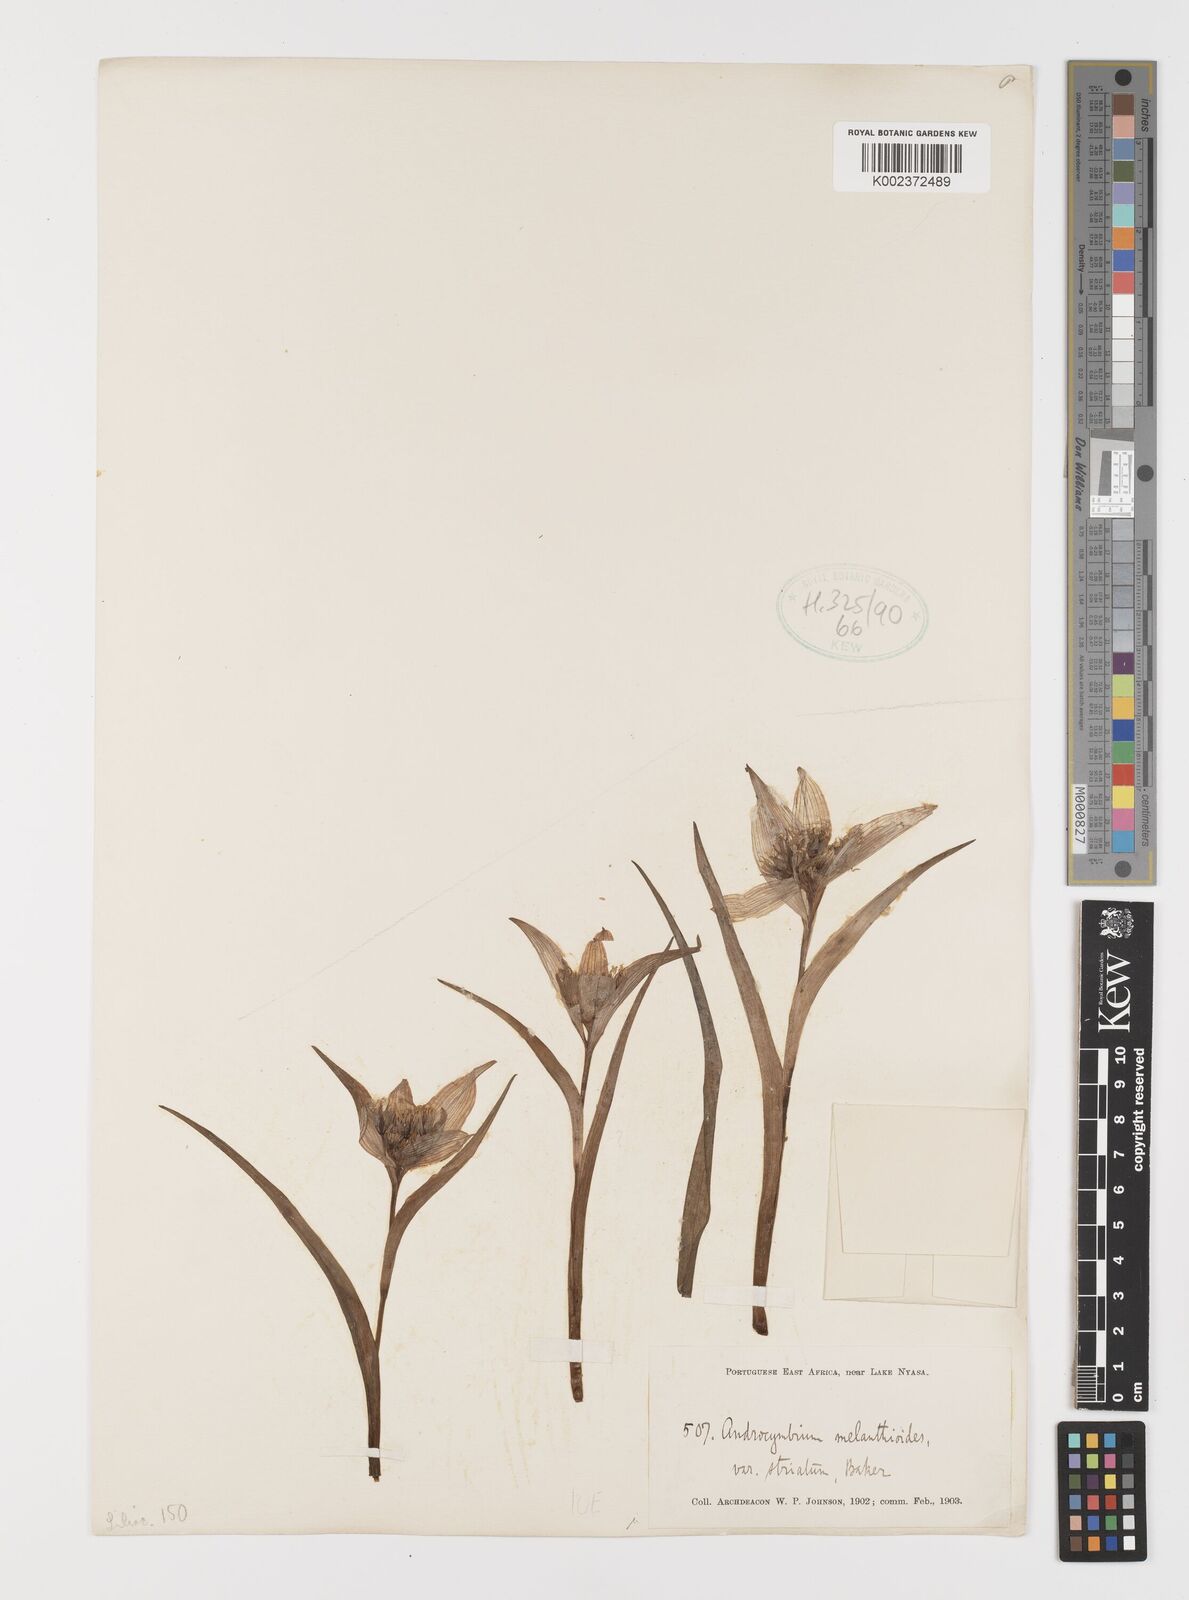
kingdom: Plantae
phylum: Tracheophyta
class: Liliopsida
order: Liliales
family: Colchicaceae
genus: Colchicum
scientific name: Colchicum striatum
